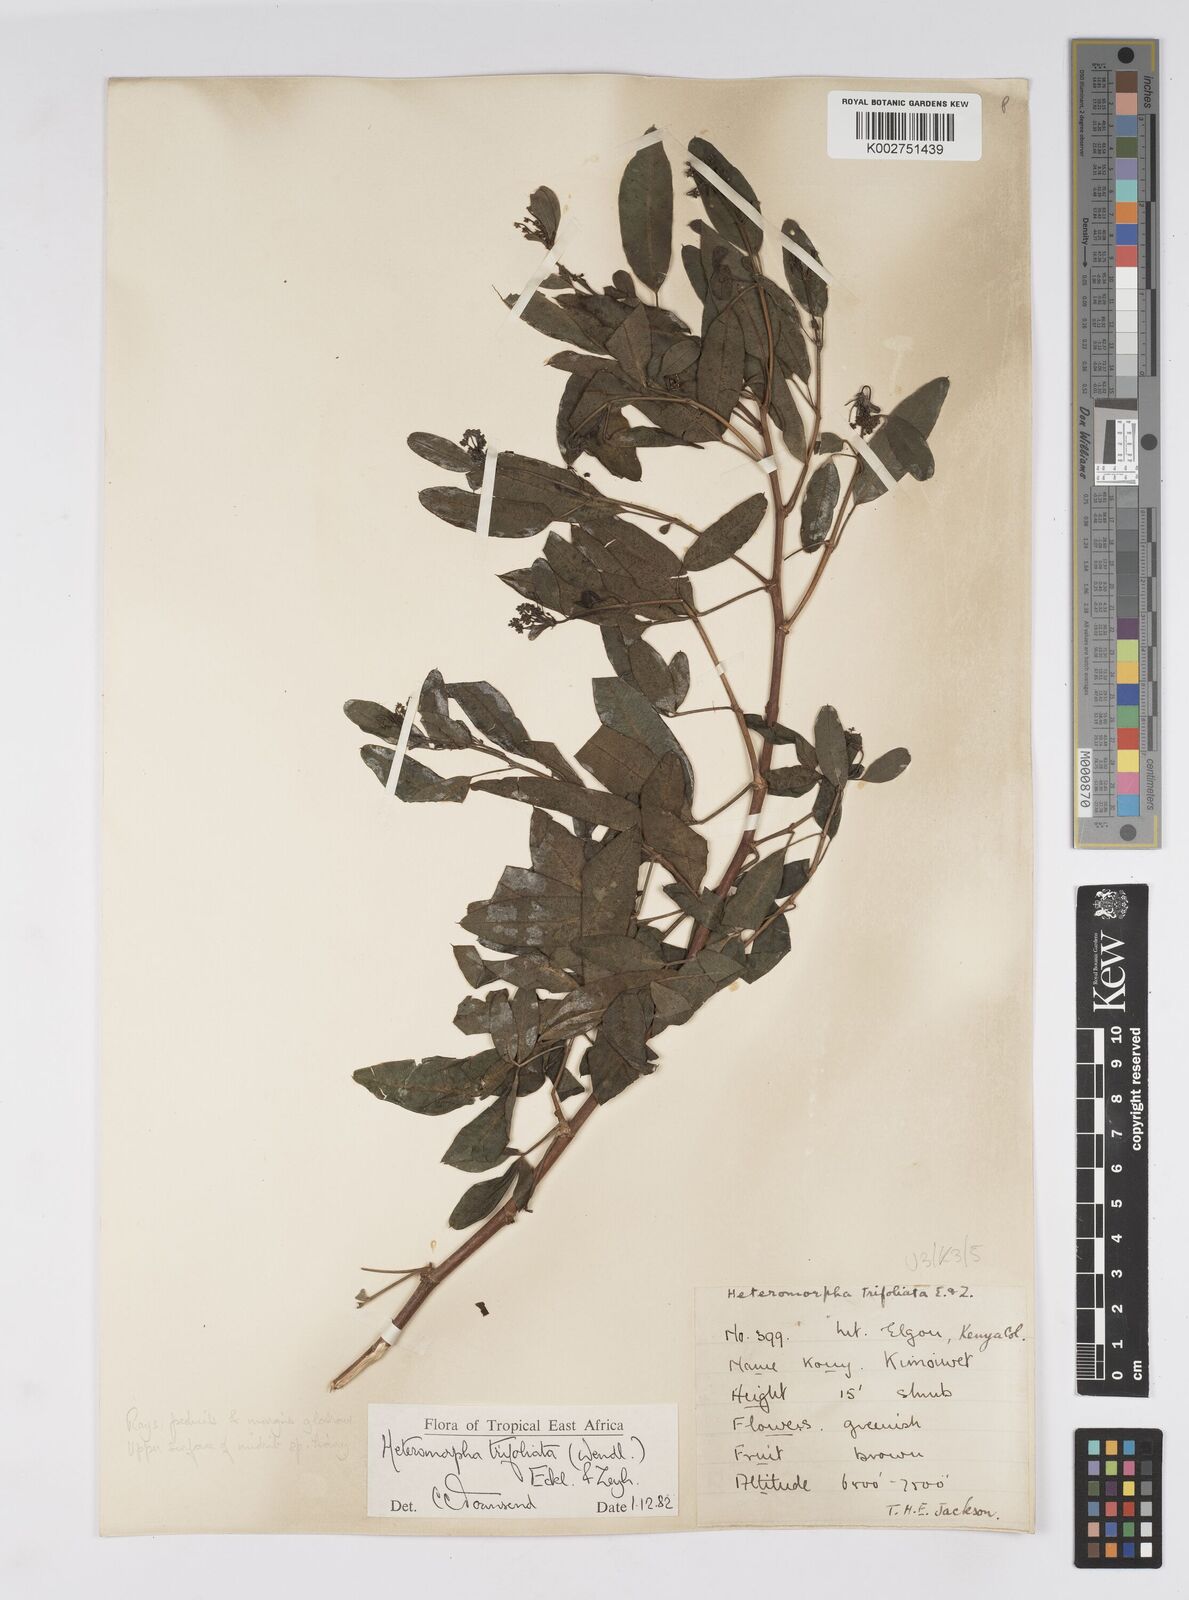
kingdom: Plantae
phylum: Tracheophyta
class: Magnoliopsida
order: Apiales
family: Apiaceae
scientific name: Apiaceae
